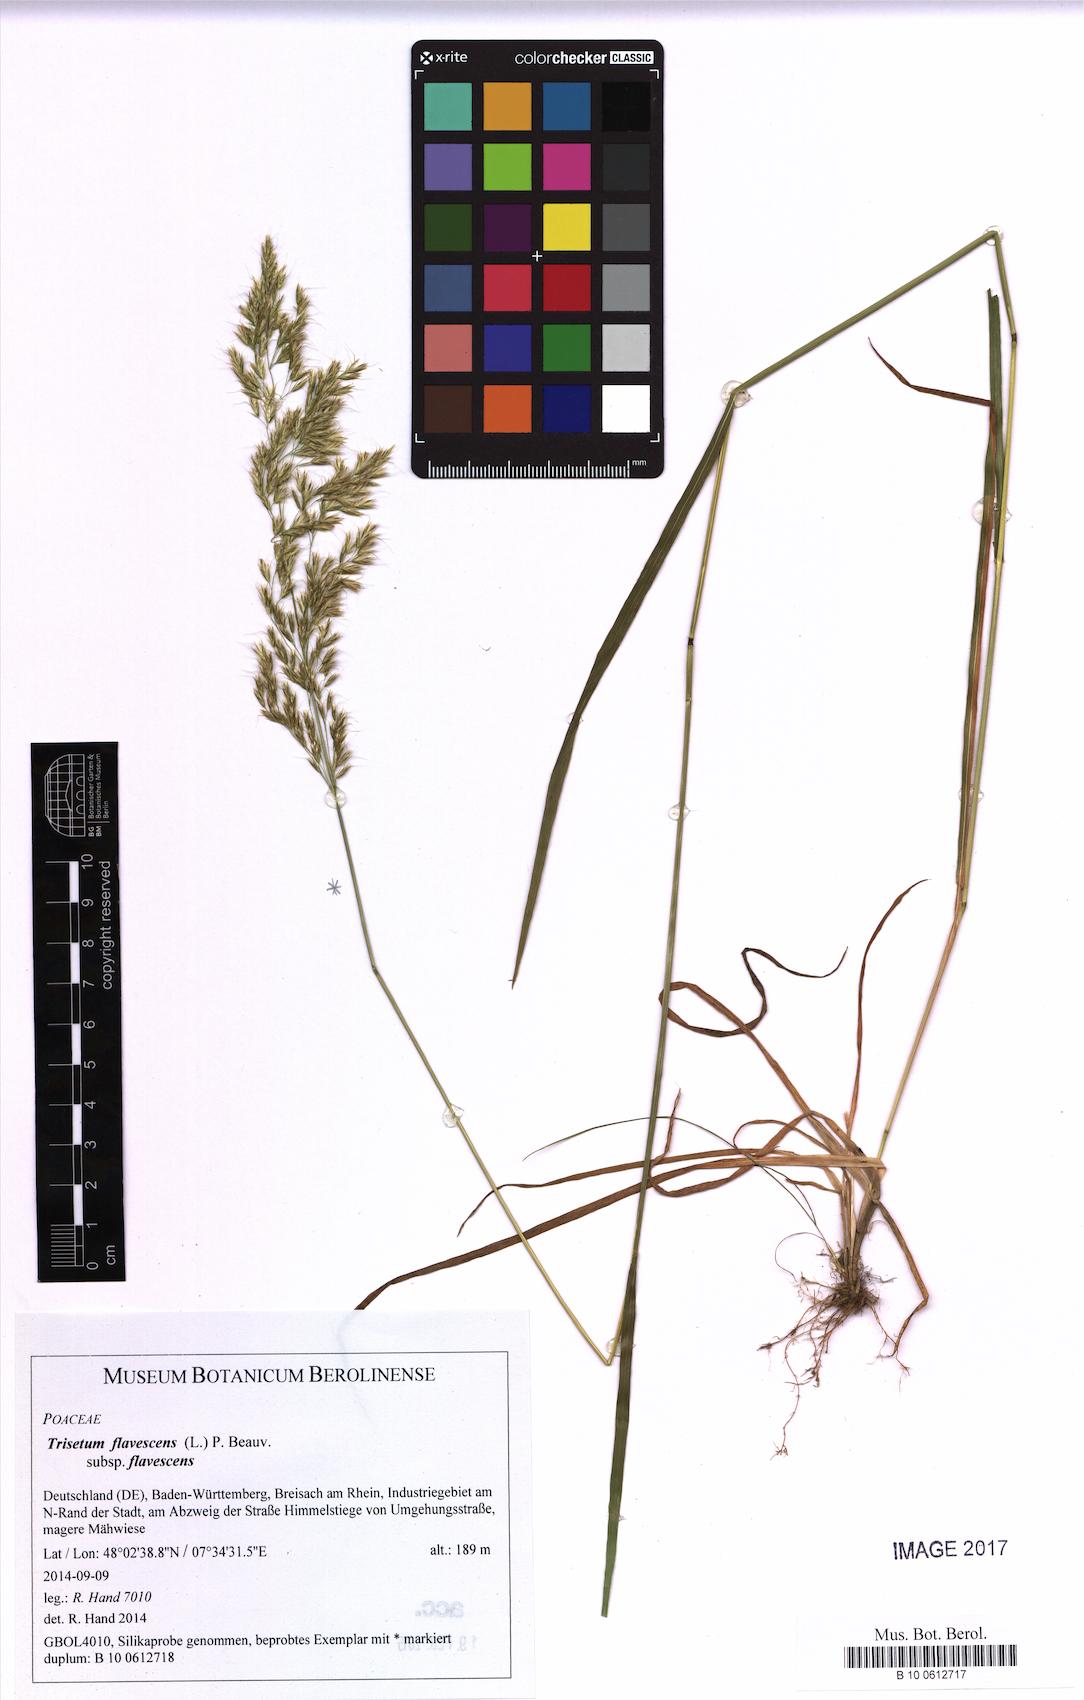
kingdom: Plantae
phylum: Tracheophyta
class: Liliopsida
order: Poales
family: Poaceae
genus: Trisetum
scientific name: Trisetum flavescens
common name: Yellow oat-grass
